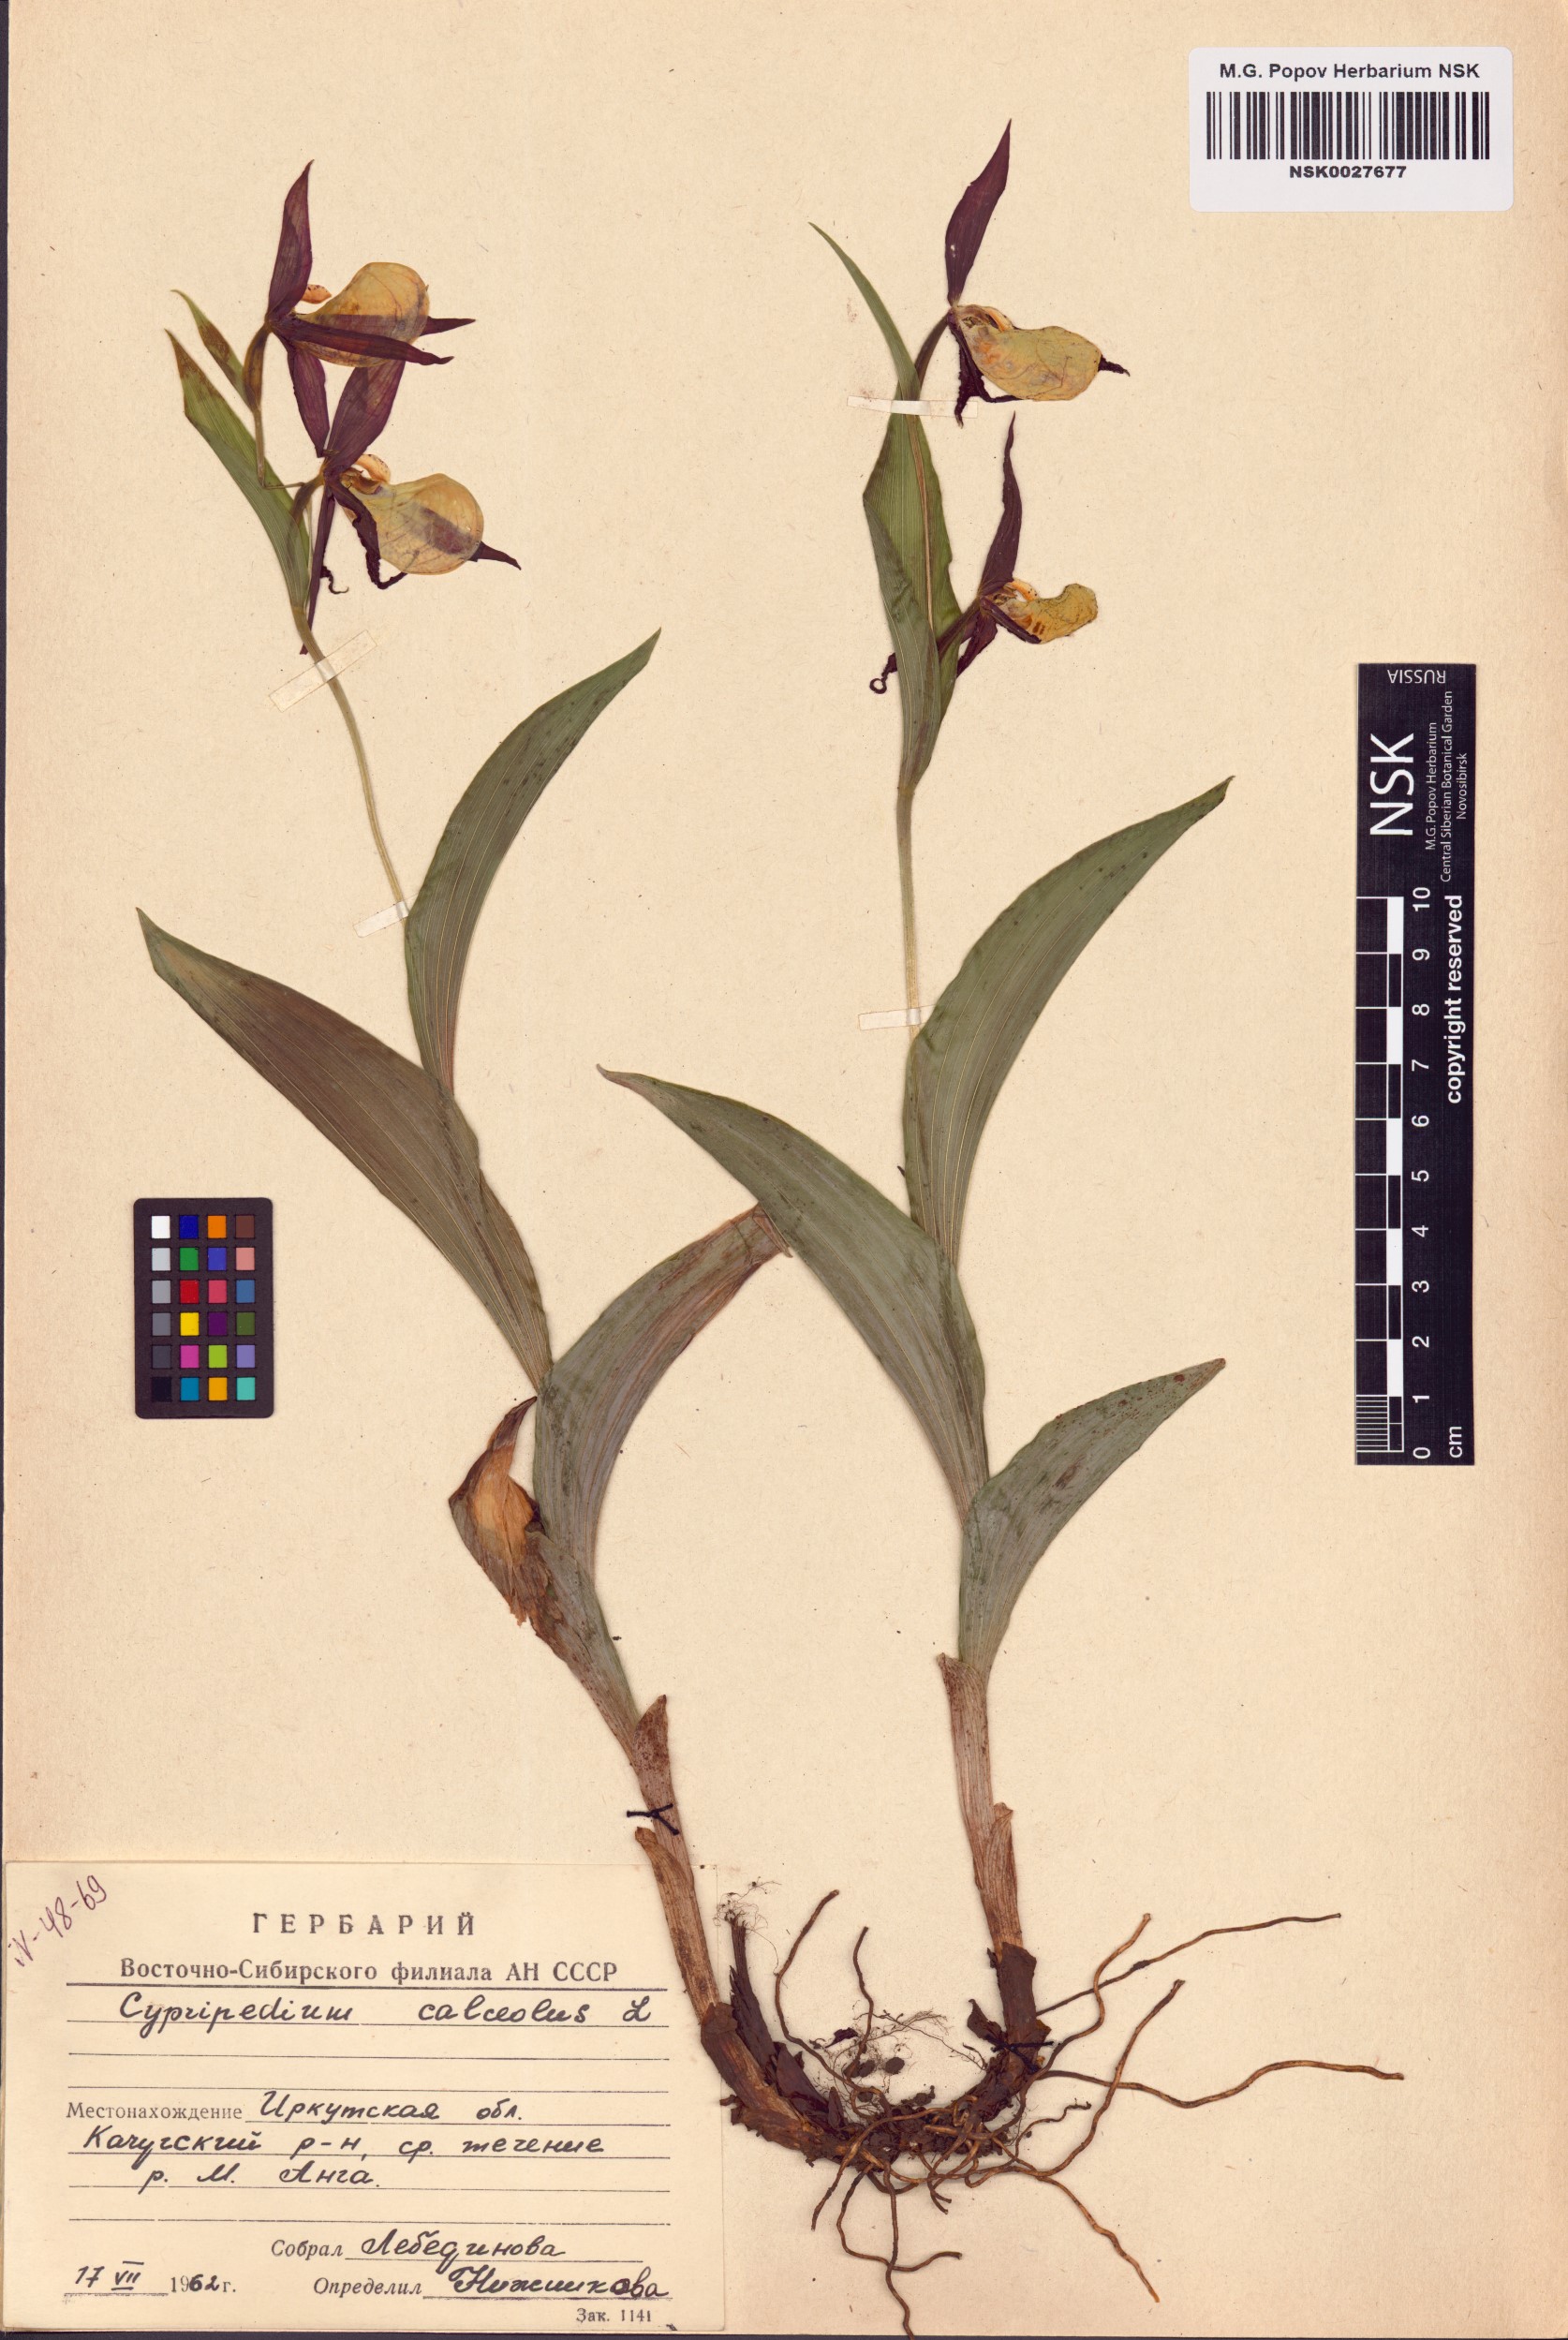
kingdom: Plantae
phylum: Tracheophyta
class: Liliopsida
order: Asparagales
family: Orchidaceae
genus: Cypripedium
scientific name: Cypripedium calceolus
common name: Lady's-slipper
